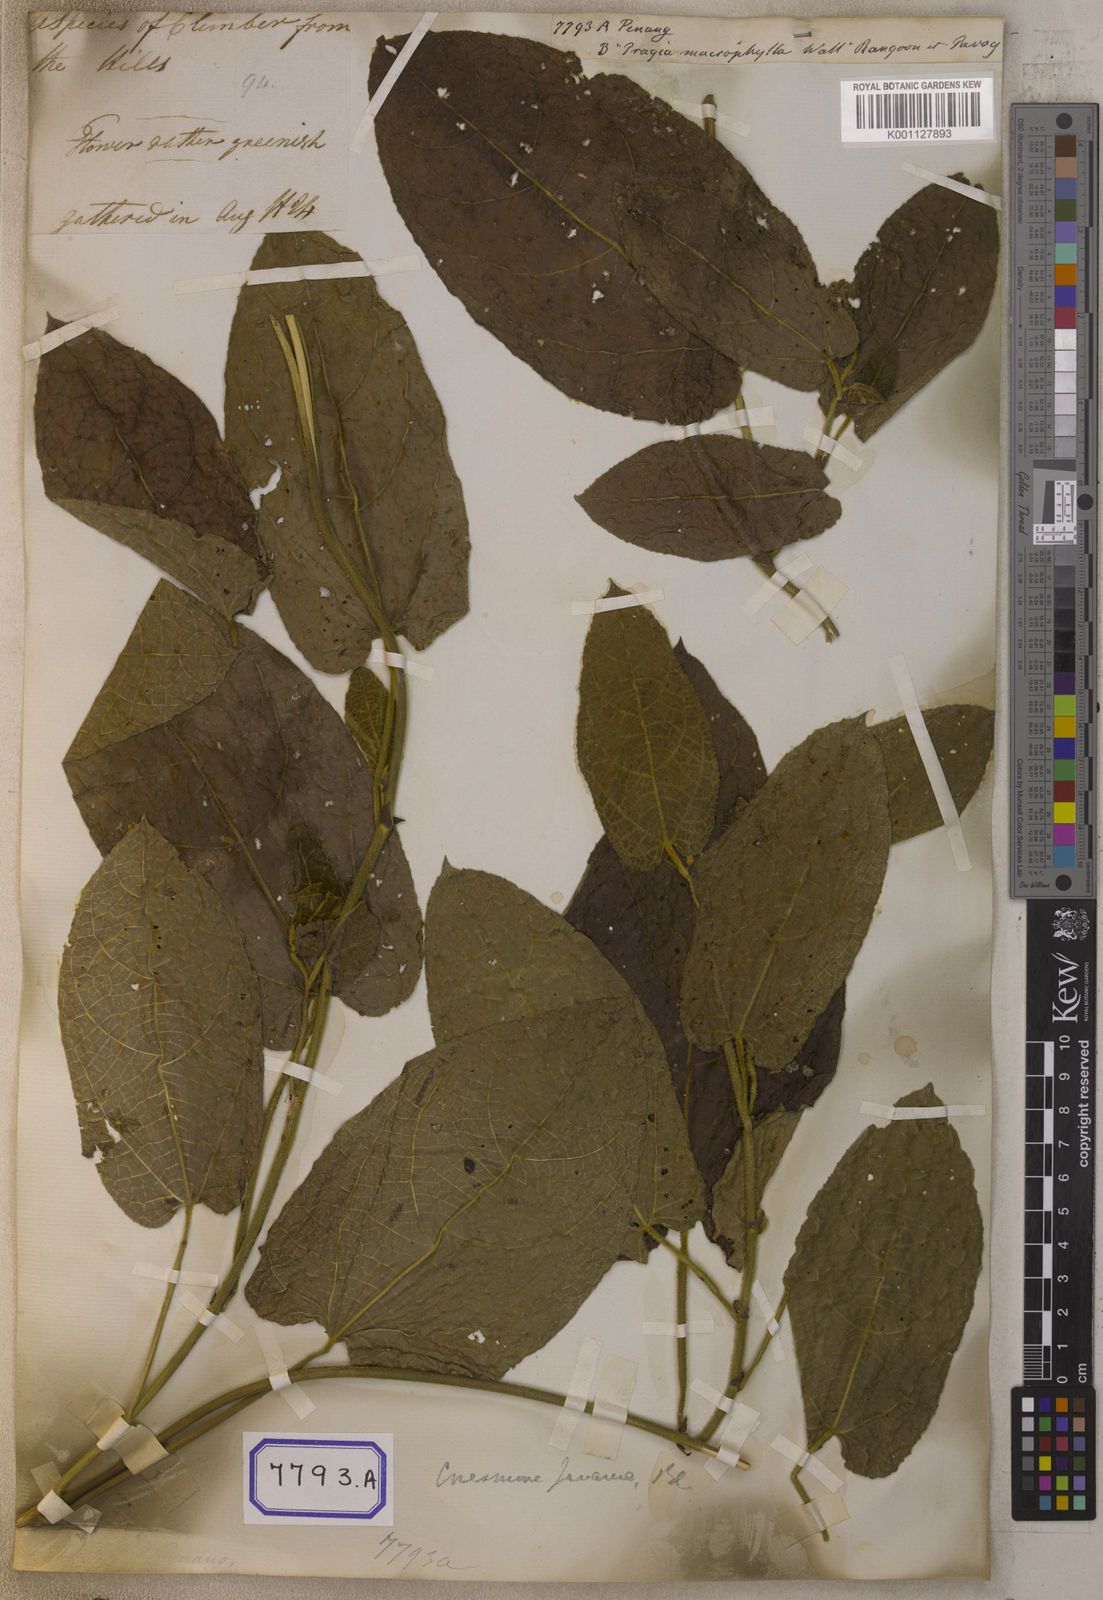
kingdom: Plantae
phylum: Tracheophyta
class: Magnoliopsida
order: Malpighiales
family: Euphorbiaceae
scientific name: Euphorbiaceae
